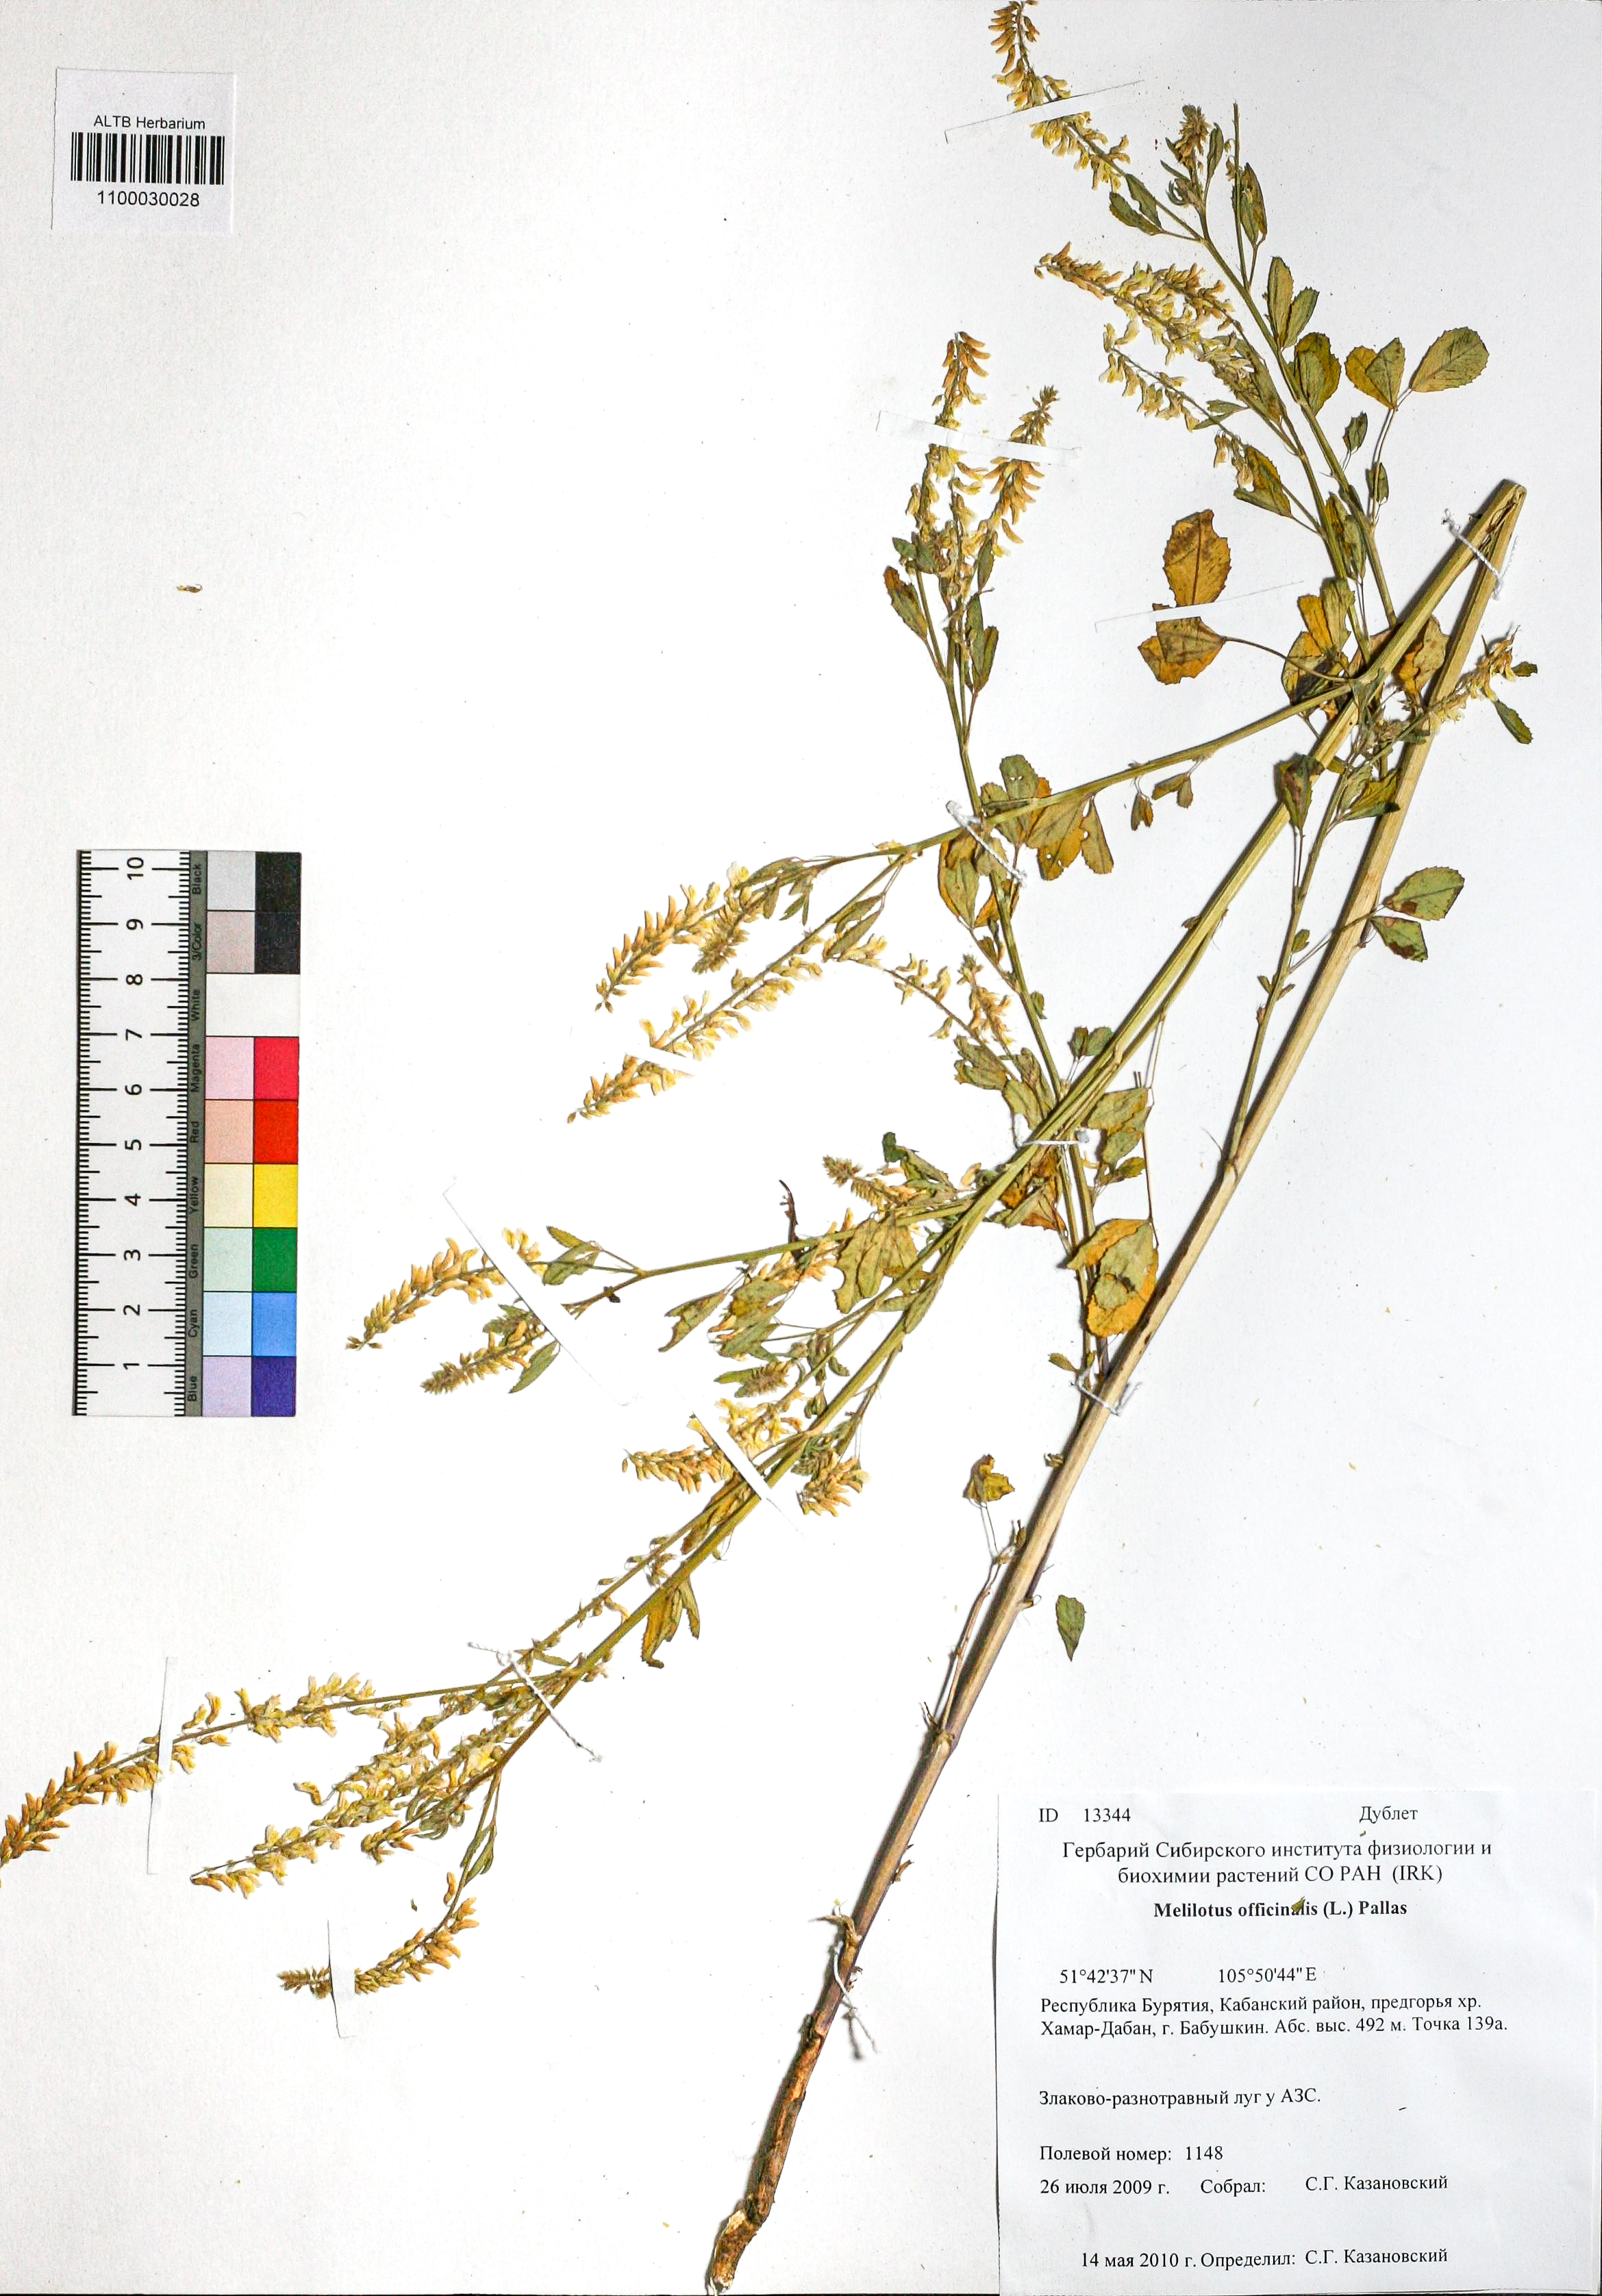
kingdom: Plantae
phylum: Tracheophyta
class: Magnoliopsida
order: Fabales
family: Fabaceae
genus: Melilotus
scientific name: Melilotus officinalis
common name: Sweetclover
